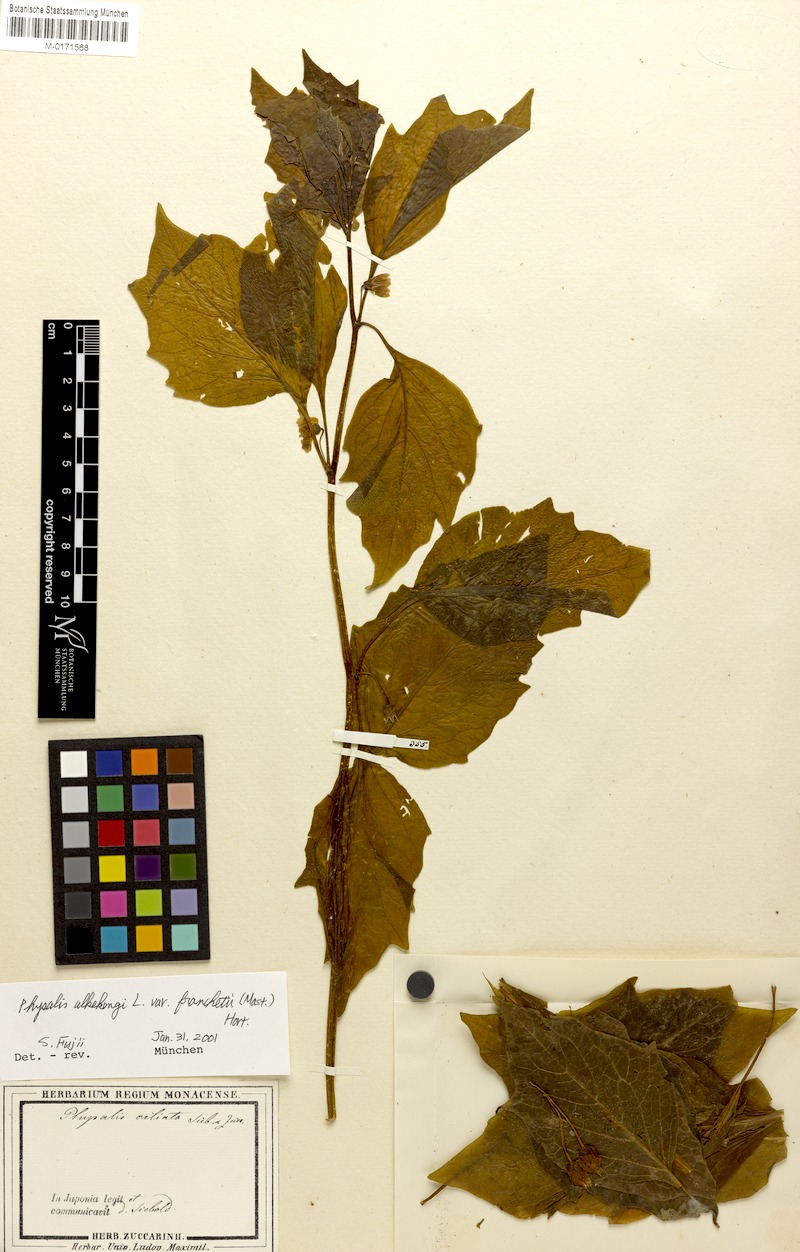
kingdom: Plantae
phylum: Tracheophyta
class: Magnoliopsida
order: Solanales
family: Solanaceae
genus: Alkekengi
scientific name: Alkekengi officinarum
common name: Japanese-lantern
